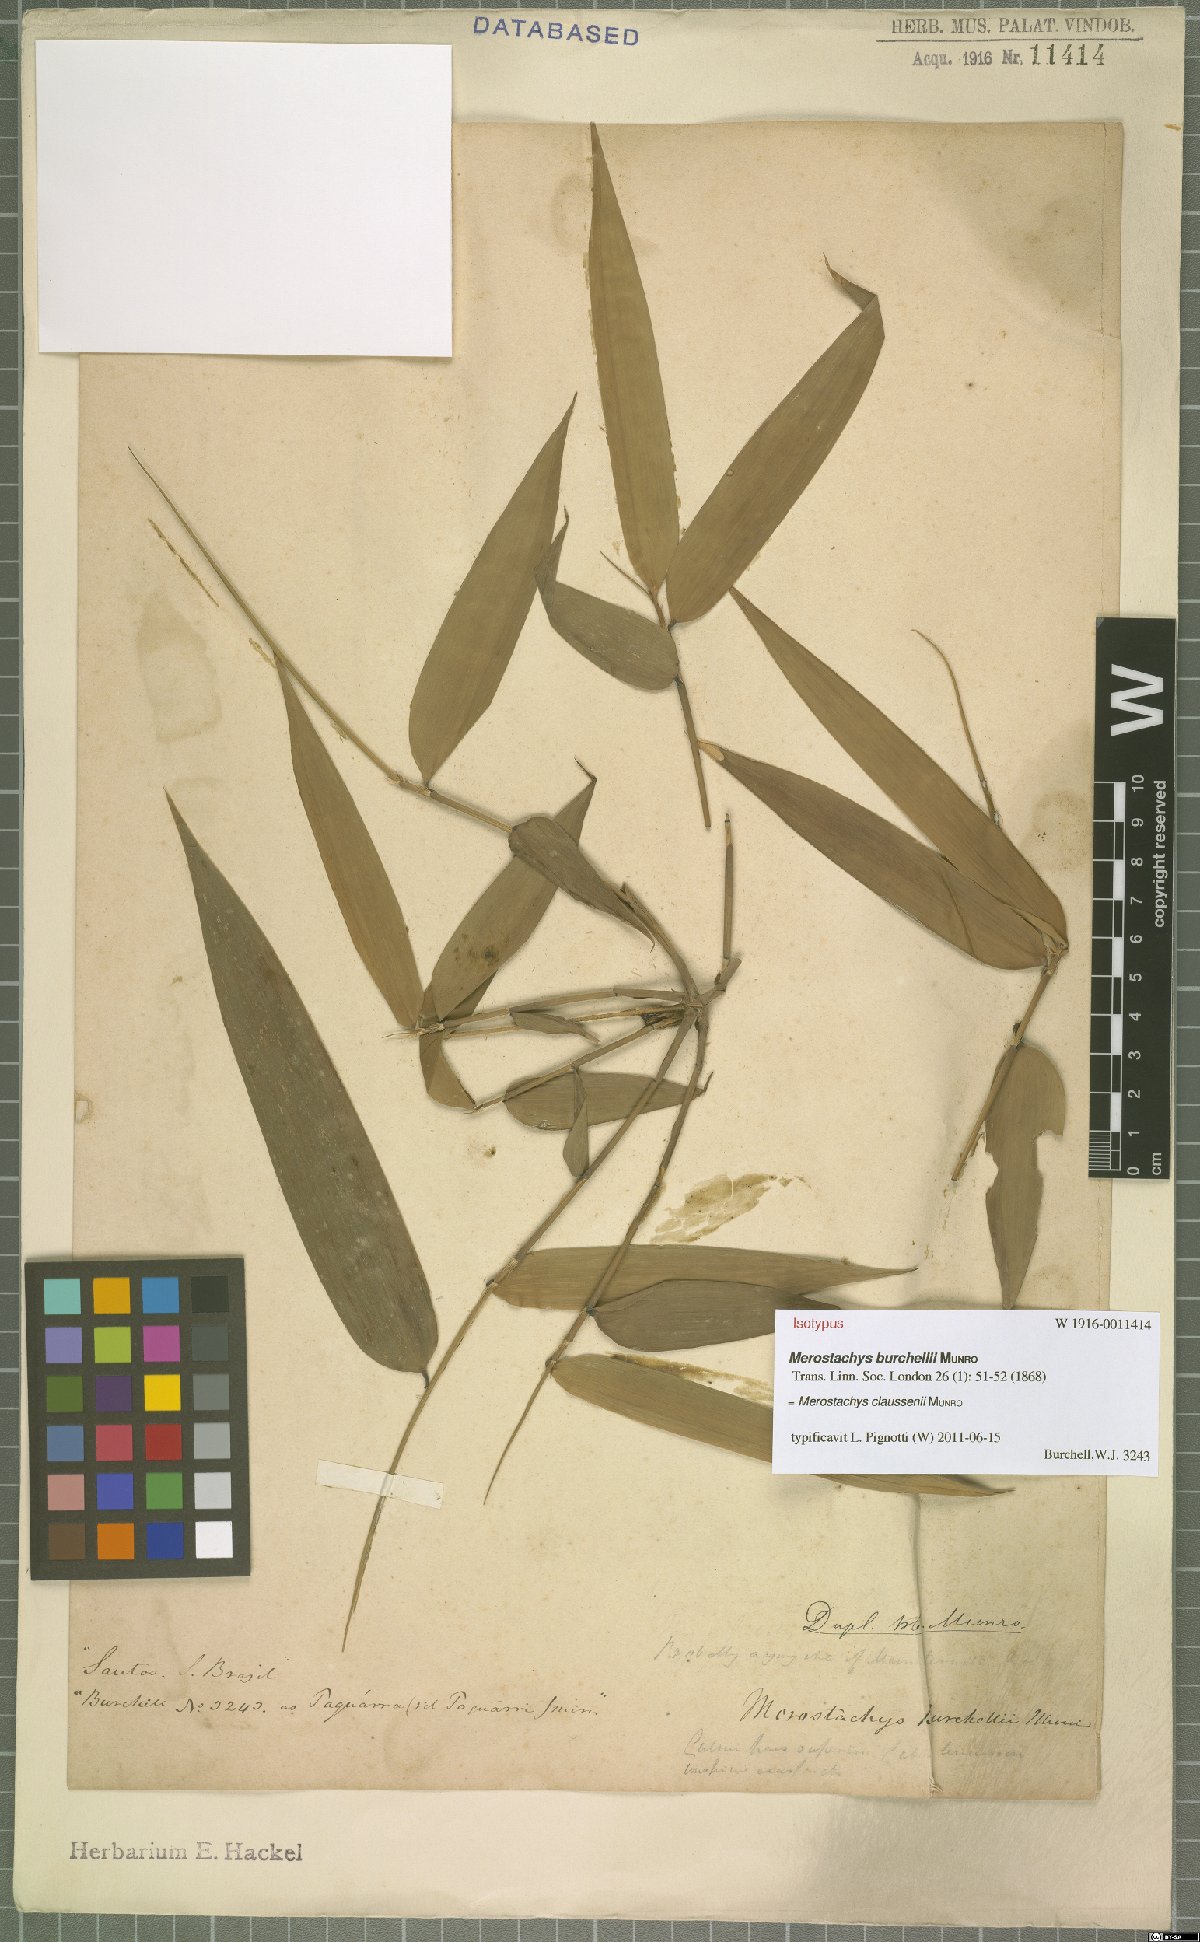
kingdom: Plantae
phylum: Tracheophyta
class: Liliopsida
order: Poales
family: Poaceae
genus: Merostachys
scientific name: Merostachys claussenii
